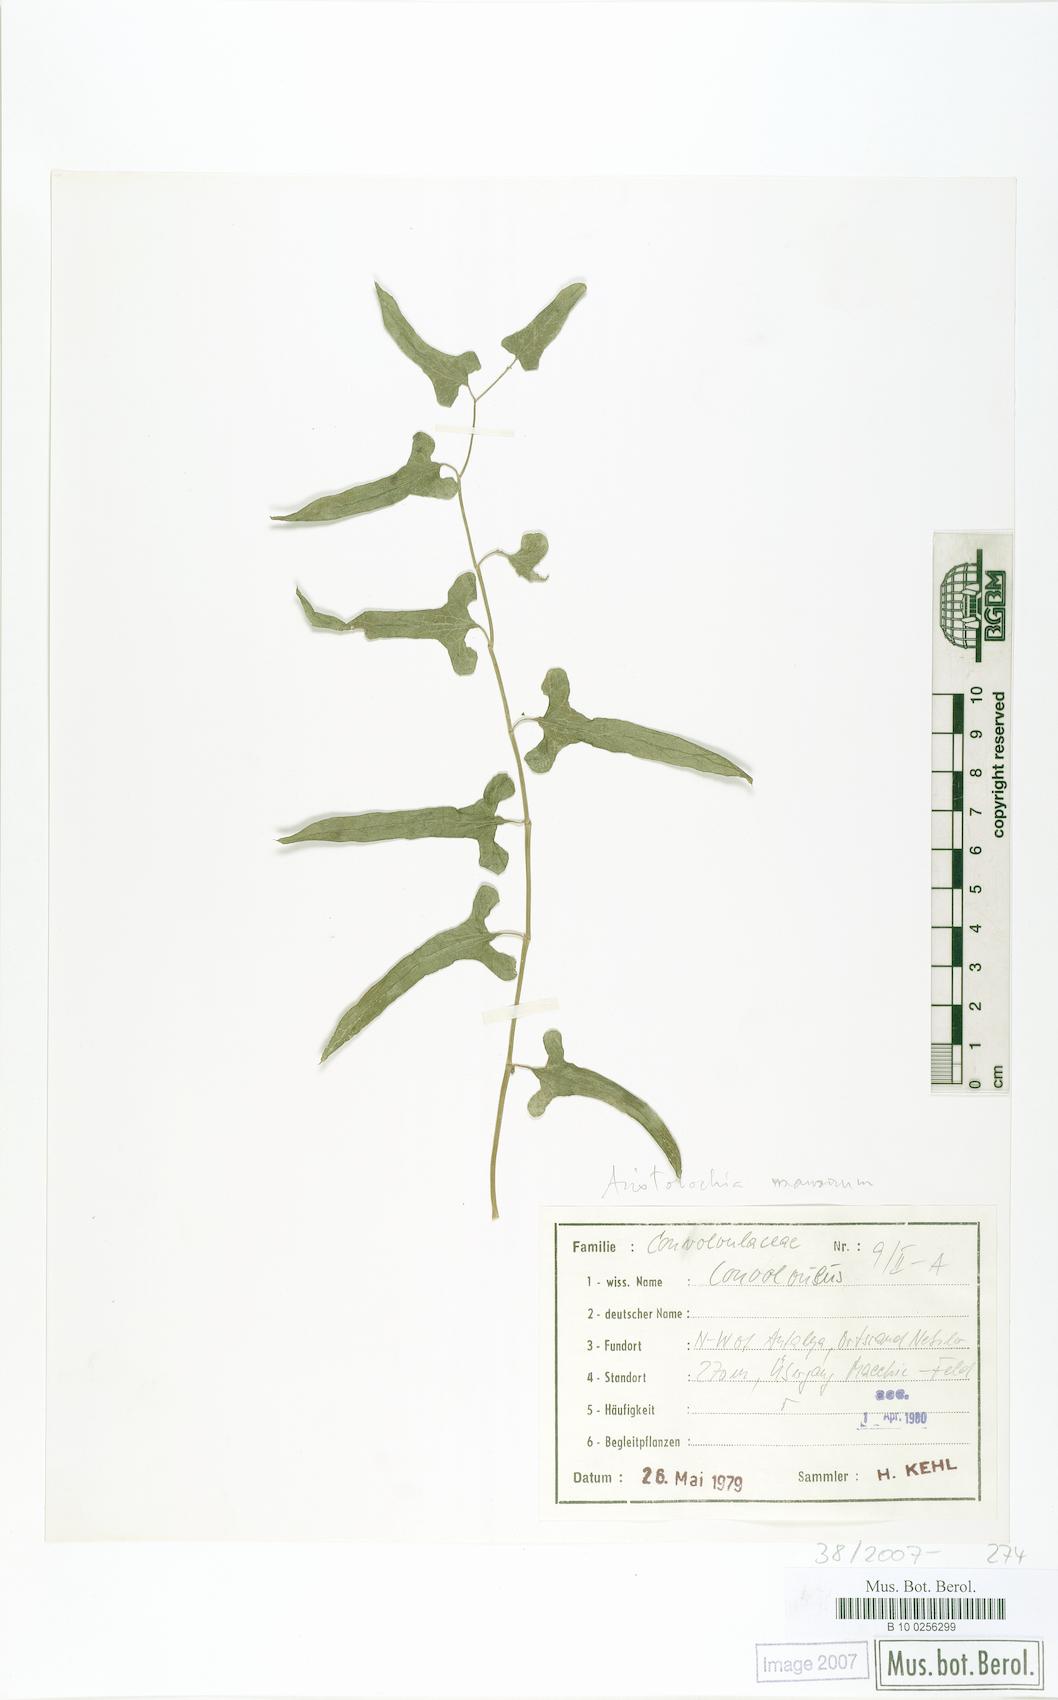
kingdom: Plantae
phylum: Tracheophyta
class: Magnoliopsida
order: Piperales
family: Aristolochiaceae
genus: Aristolochia
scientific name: Aristolochia maurorum
